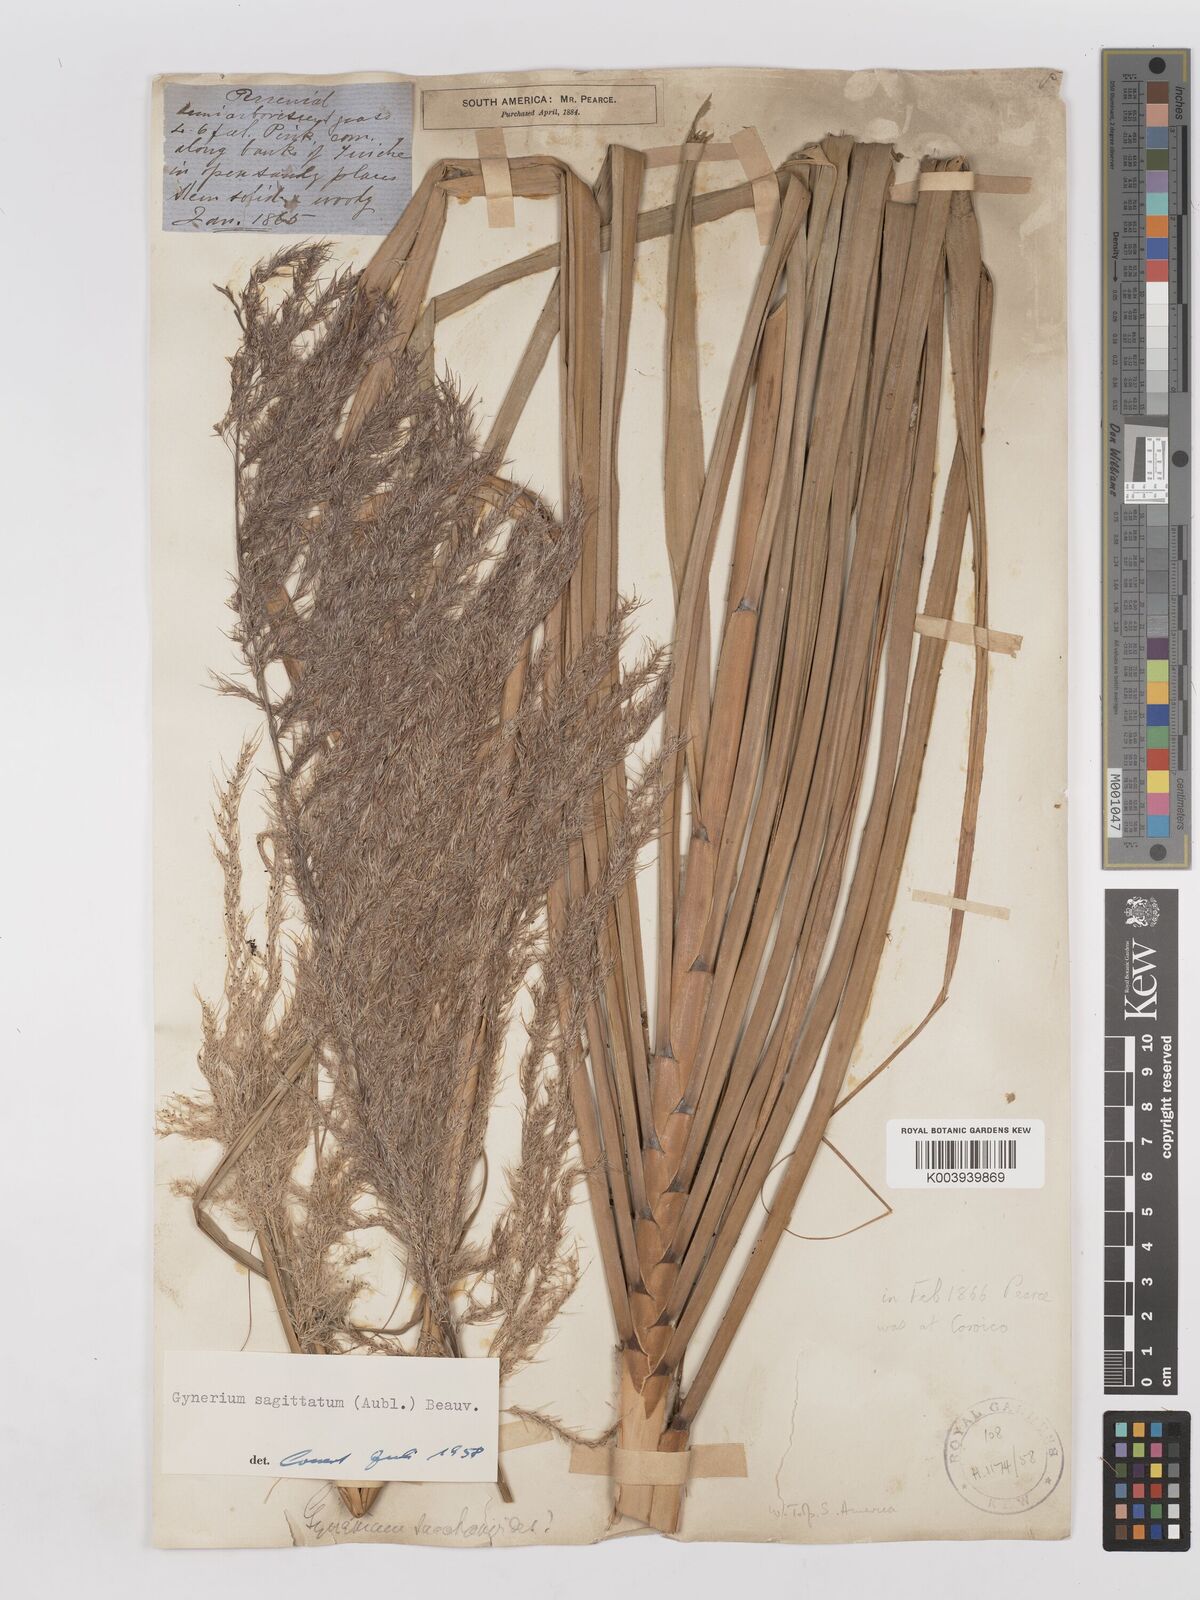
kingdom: Plantae
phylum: Tracheophyta
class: Liliopsida
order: Poales
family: Poaceae
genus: Gynerium
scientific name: Gynerium sagittatum
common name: Wild cane
